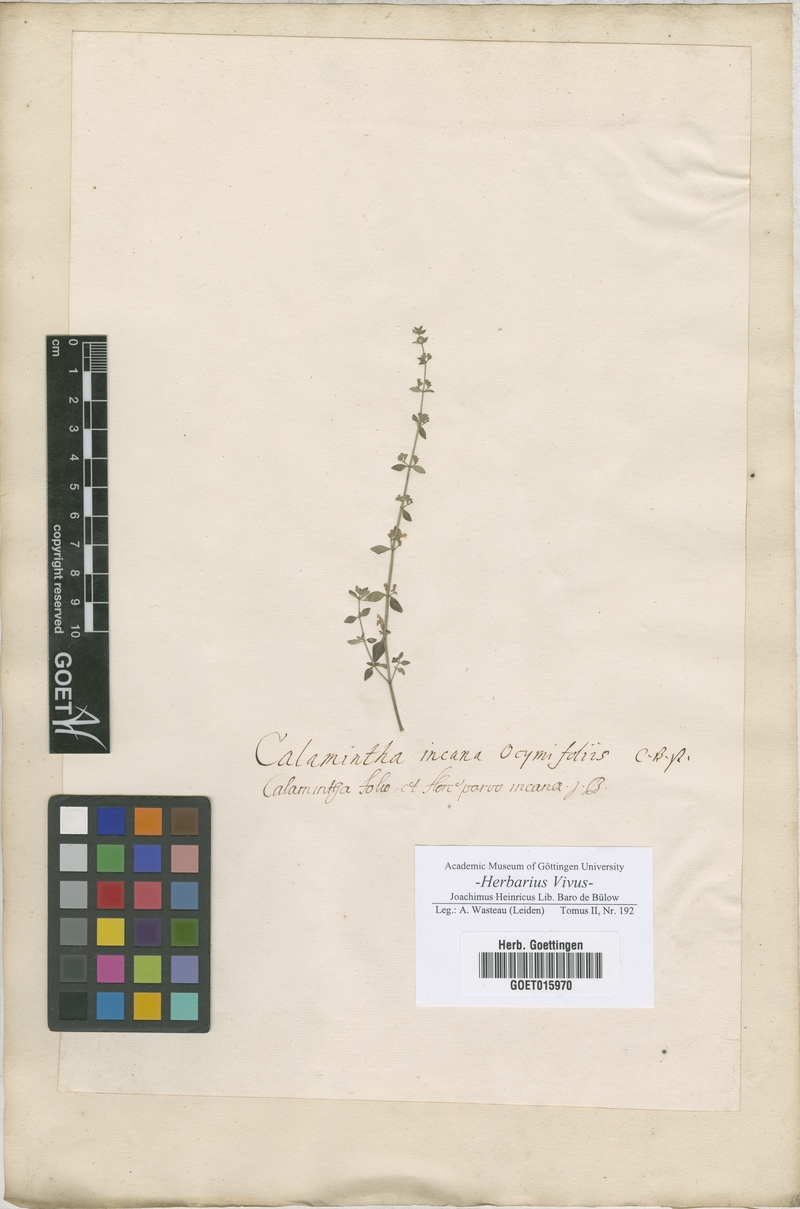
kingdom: Plantae
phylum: Tracheophyta
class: Magnoliopsida
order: Lamiales
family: Lamiaceae
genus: Calamintha
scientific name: Calamintha
